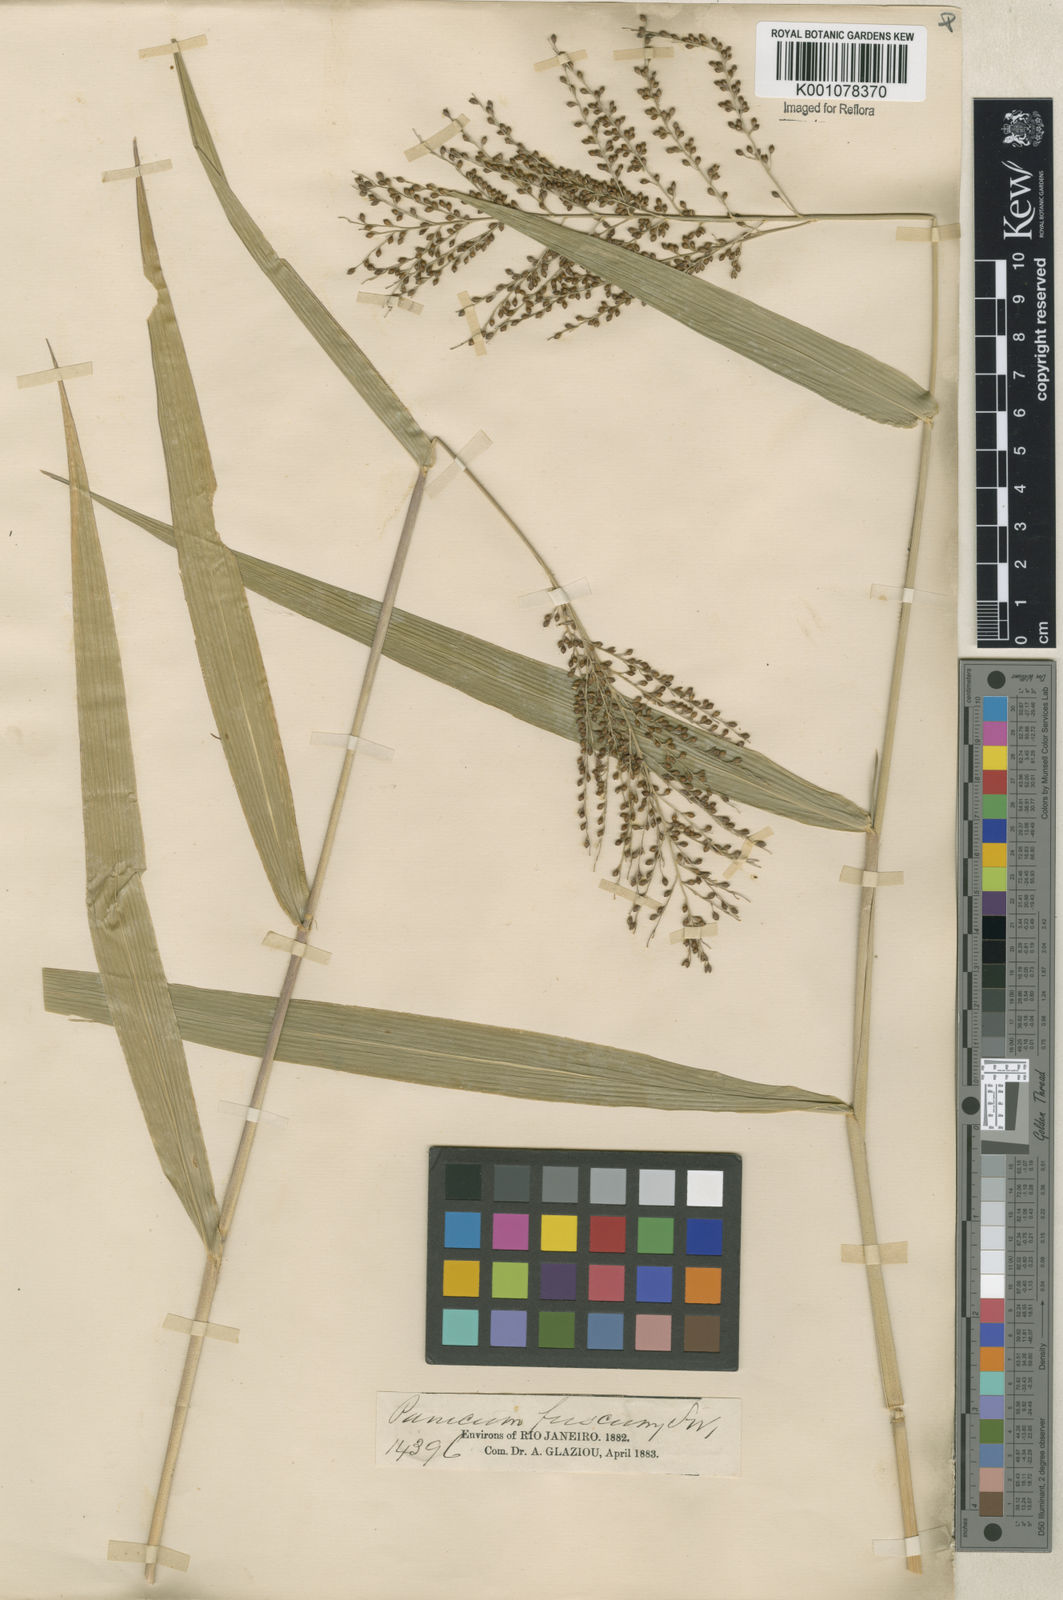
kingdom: Plantae
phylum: Tracheophyta
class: Liliopsida
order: Poales
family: Poaceae
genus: Urochloa
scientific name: Urochloa fusca
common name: Browntop signal grass
